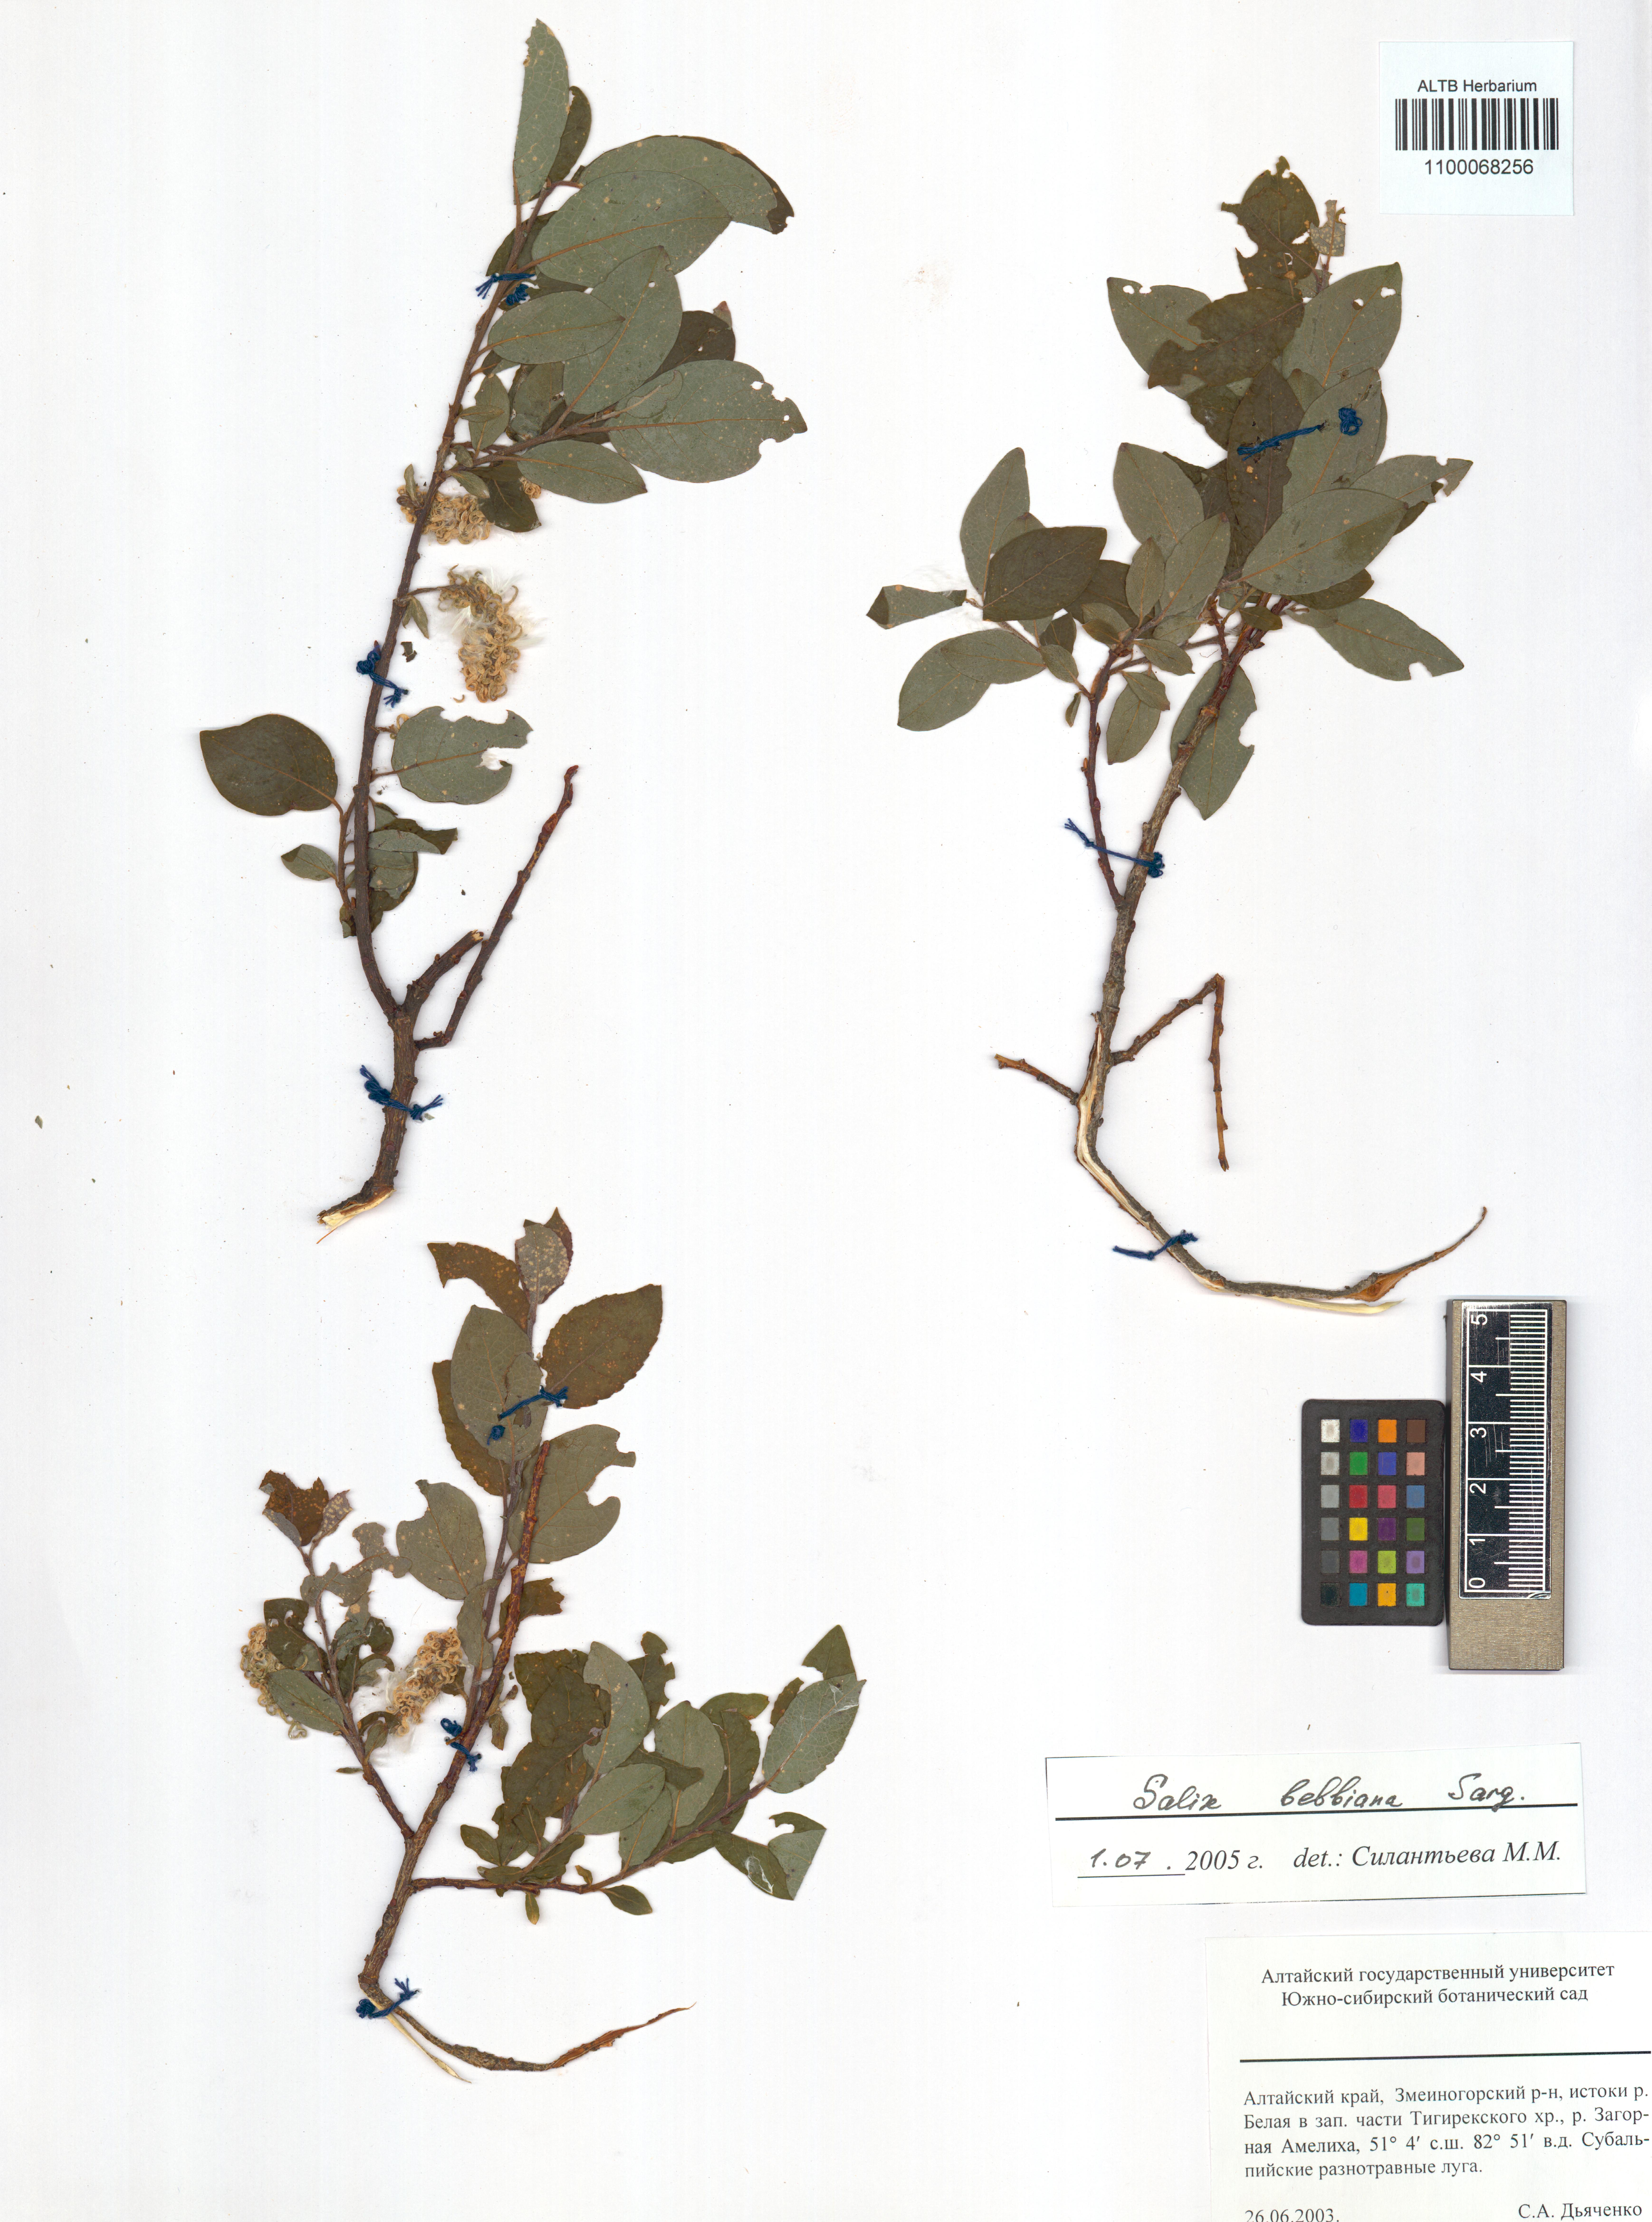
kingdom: Plantae
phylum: Tracheophyta
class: Magnoliopsida
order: Malpighiales
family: Salicaceae
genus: Salix
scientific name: Salix bebbiana
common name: Bebb's willow
